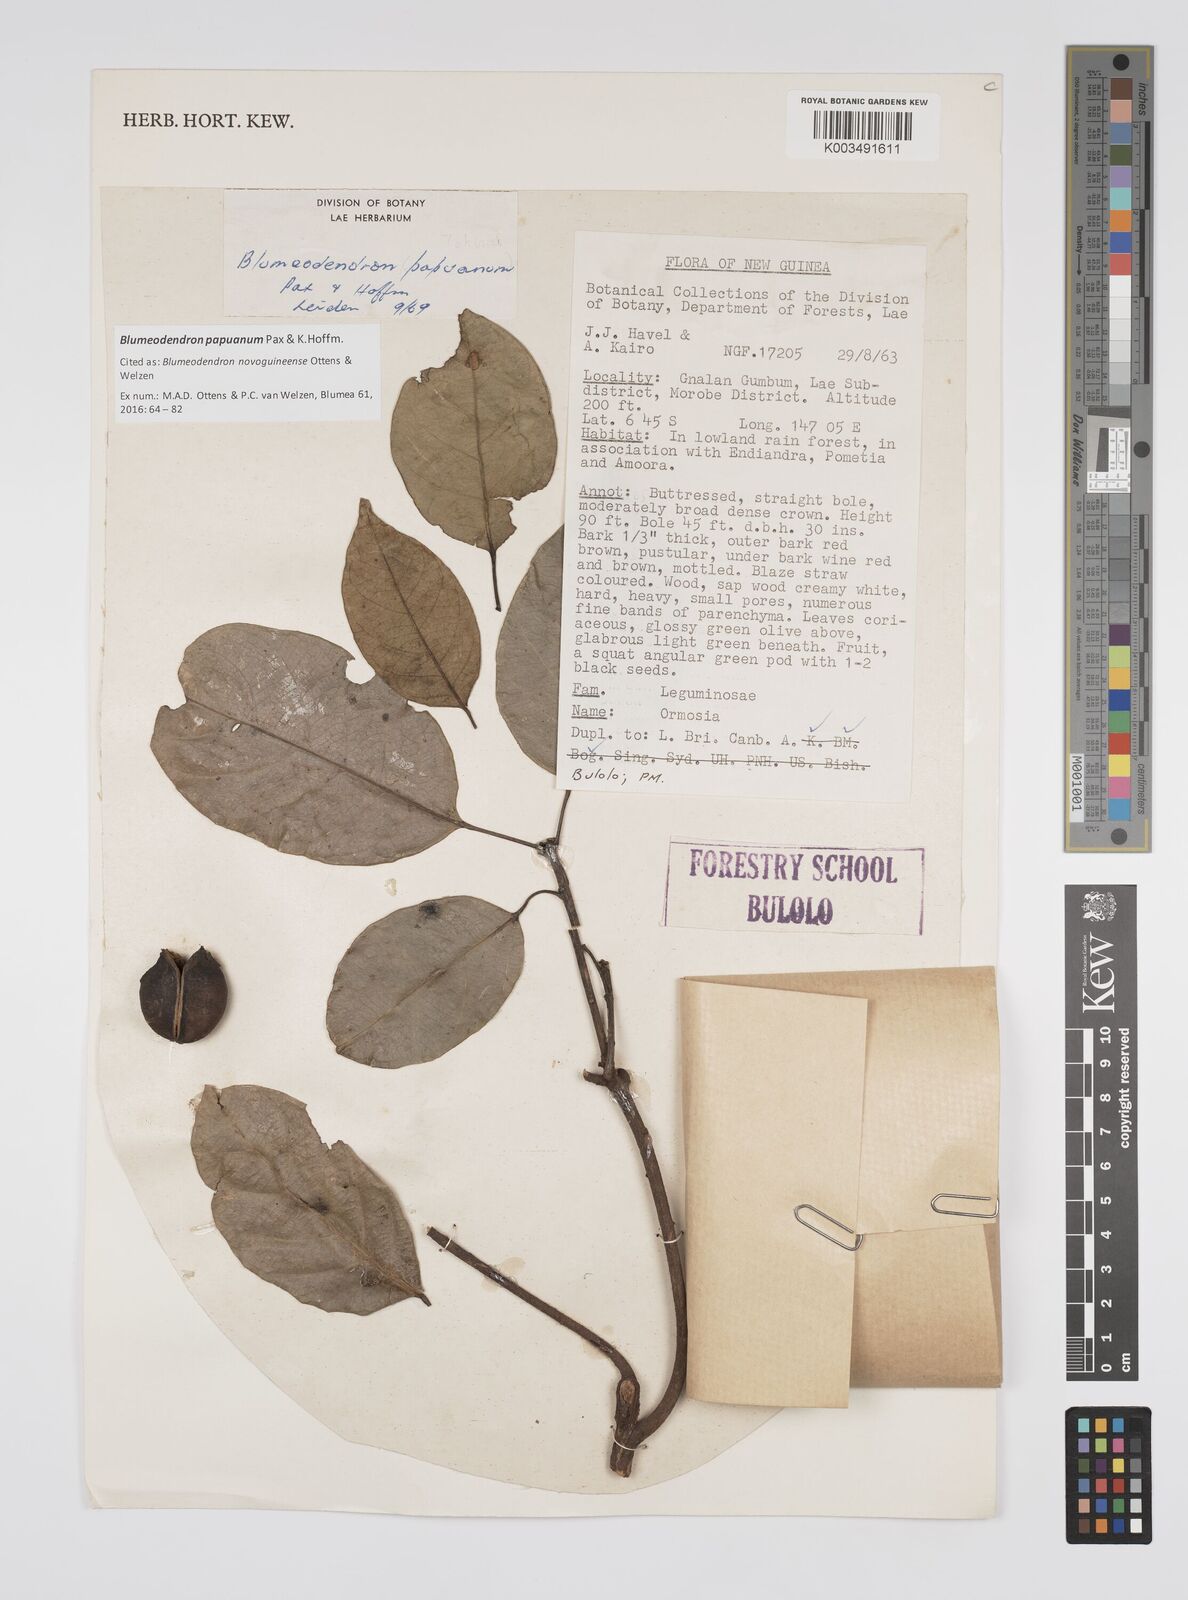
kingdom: Plantae
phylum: Tracheophyta
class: Magnoliopsida
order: Malpighiales
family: Euphorbiaceae
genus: Blumeodendron
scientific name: Blumeodendron papuanum
